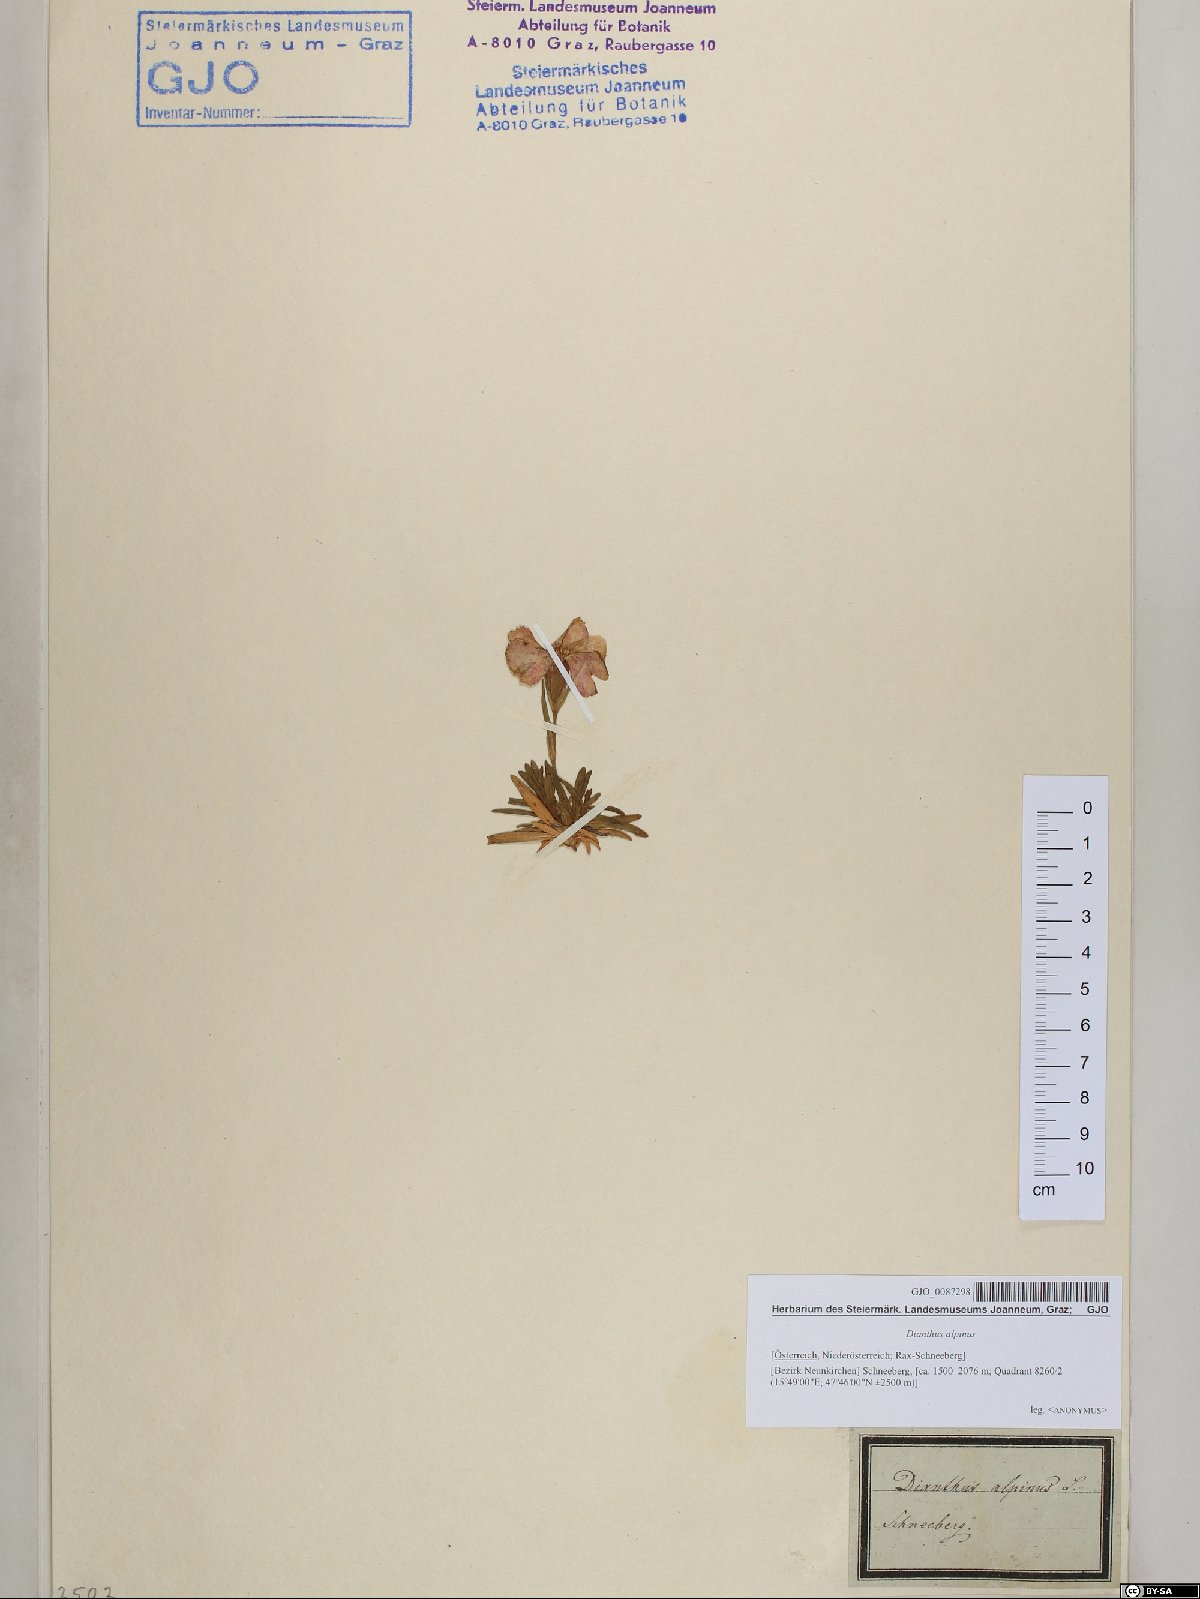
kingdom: Plantae
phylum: Tracheophyta
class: Magnoliopsida
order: Caryophyllales
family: Caryophyllaceae
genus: Dianthus
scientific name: Dianthus alpinus
